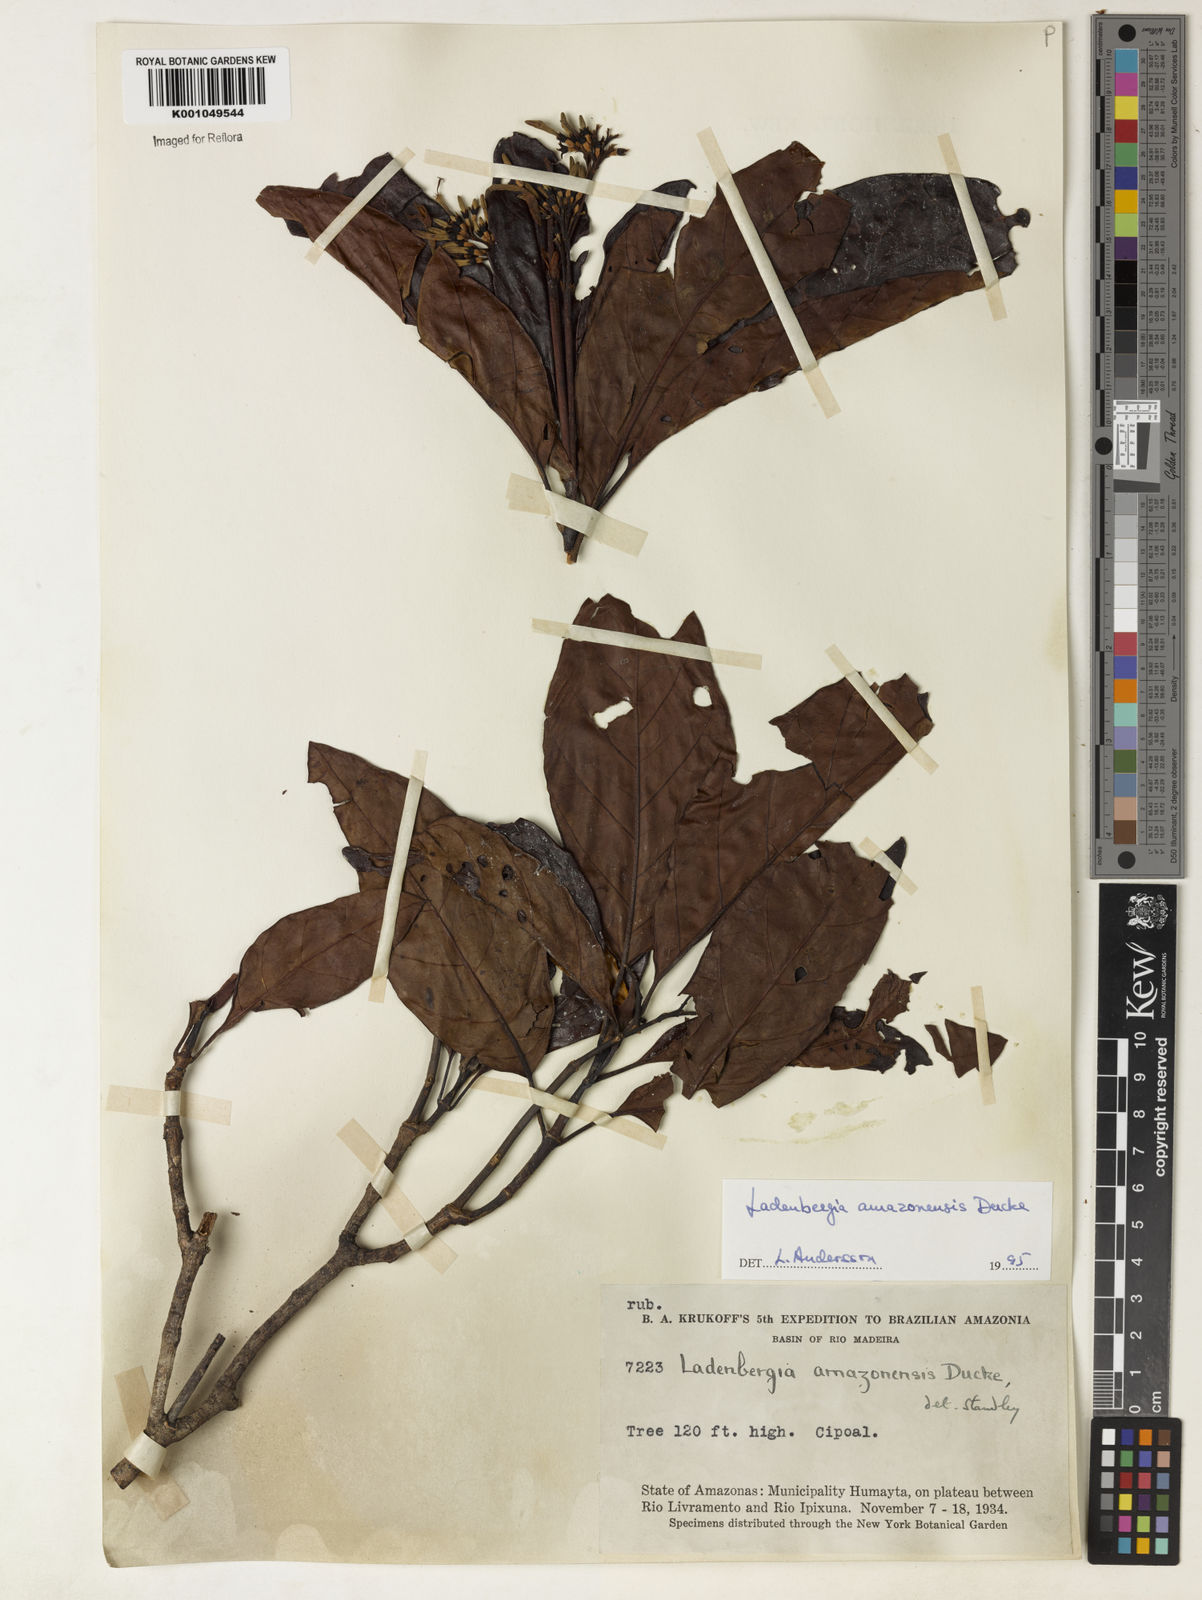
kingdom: Plantae
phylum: Tracheophyta
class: Magnoliopsida
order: Gentianales
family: Rubiaceae
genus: Ladenbergia
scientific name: Ladenbergia amazonensis
